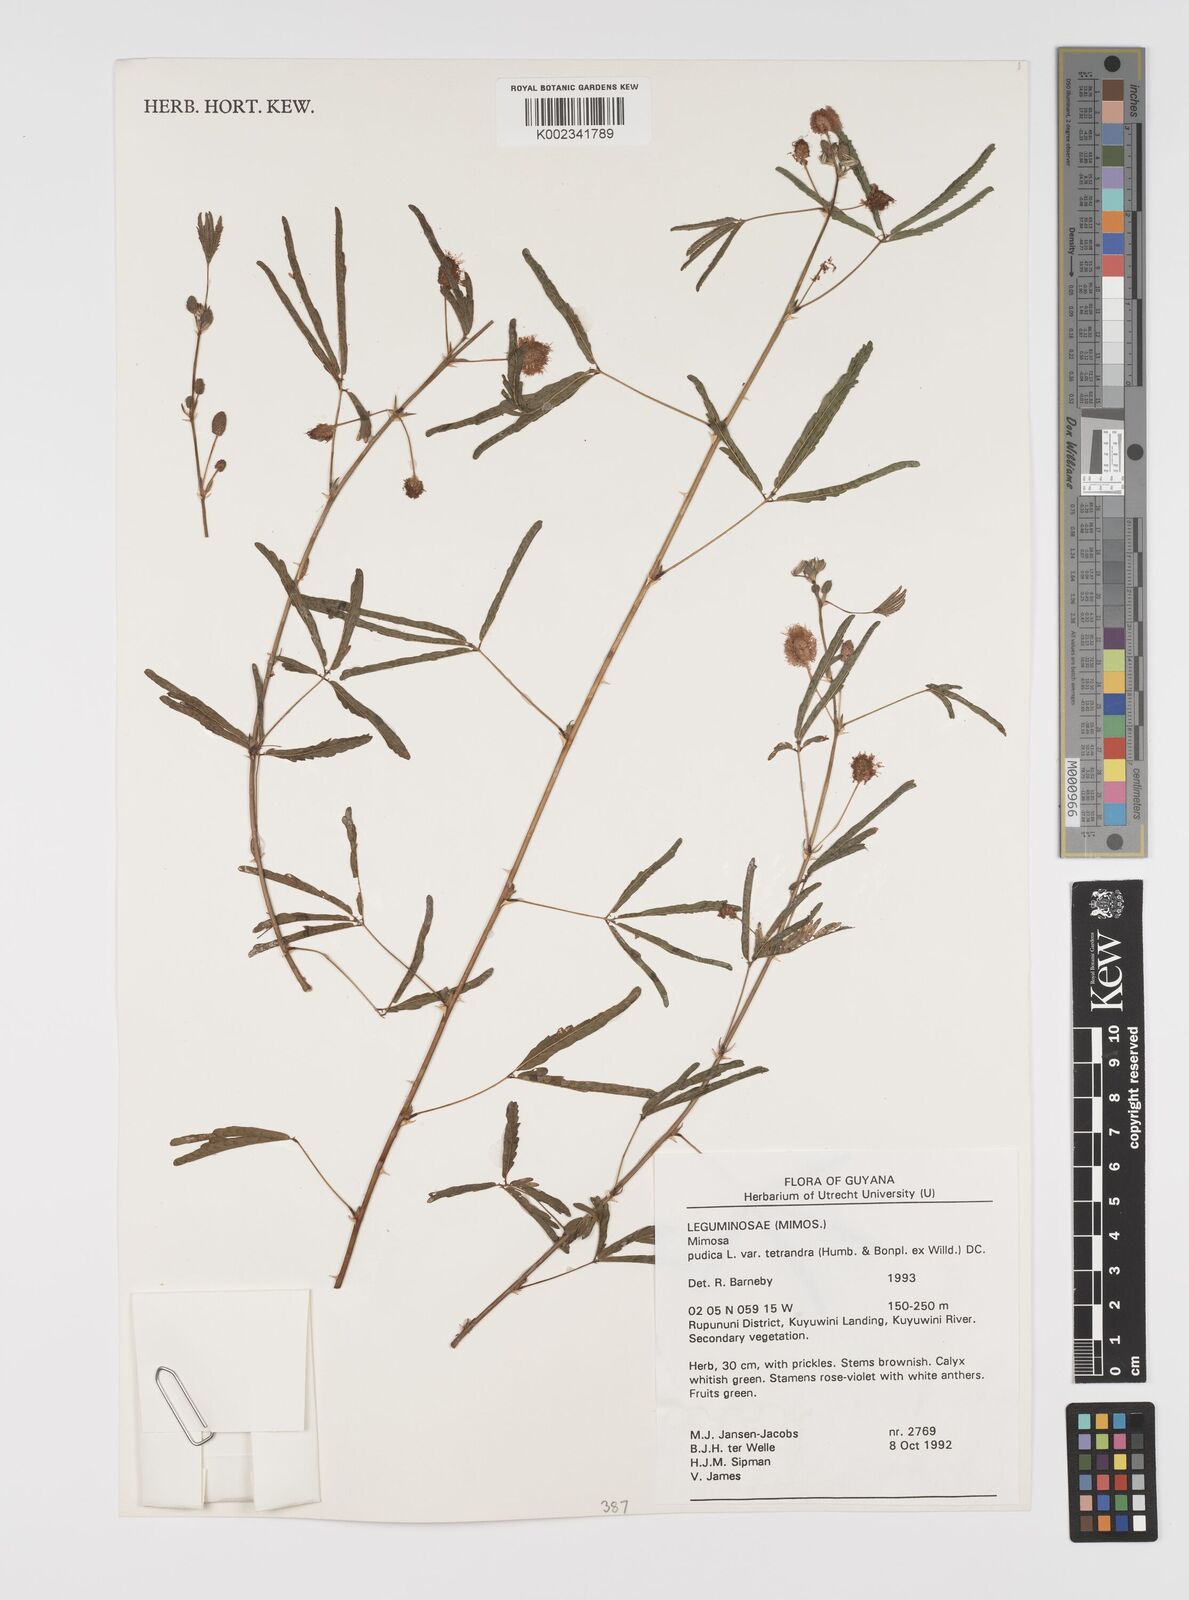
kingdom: Plantae
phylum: Tracheophyta
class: Magnoliopsida
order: Fabales
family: Fabaceae
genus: Mimosa
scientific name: Mimosa pudica
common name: Sensitive plant
